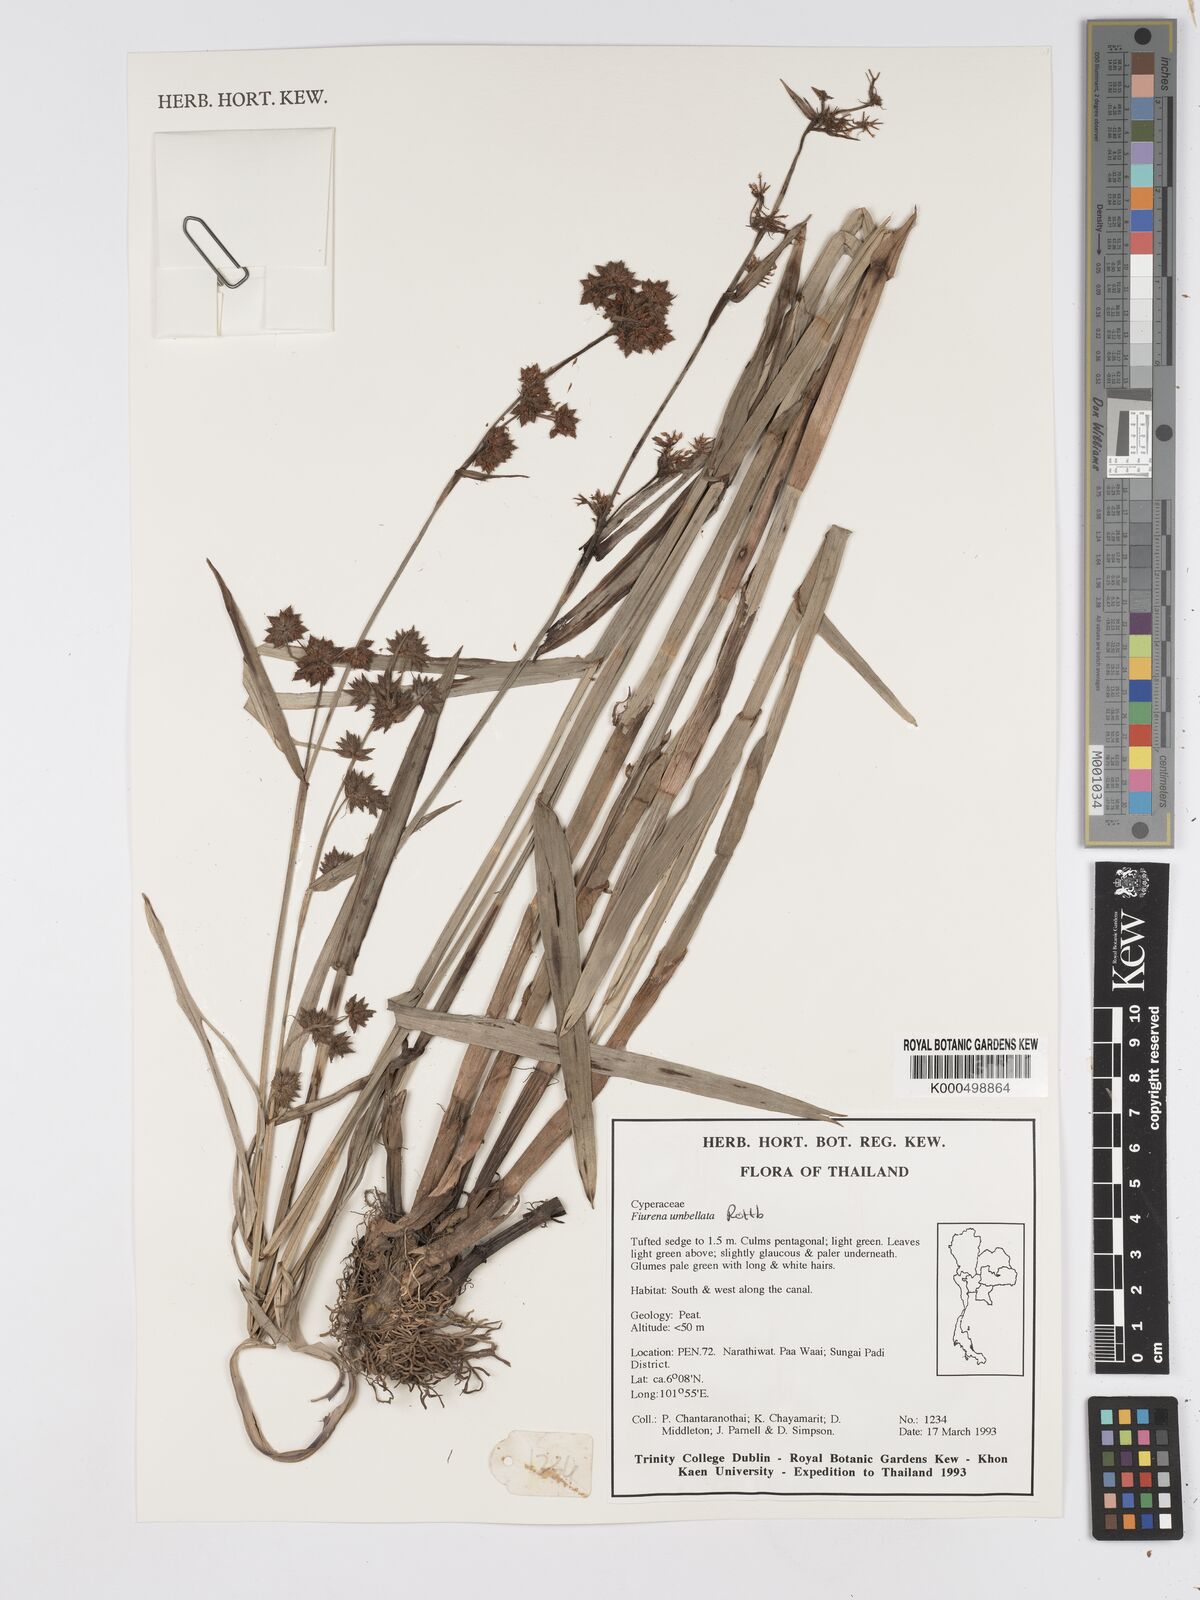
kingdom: Plantae
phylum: Tracheophyta
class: Liliopsida
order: Poales
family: Cyperaceae
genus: Fuirena
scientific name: Fuirena umbellata
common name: Yefen
